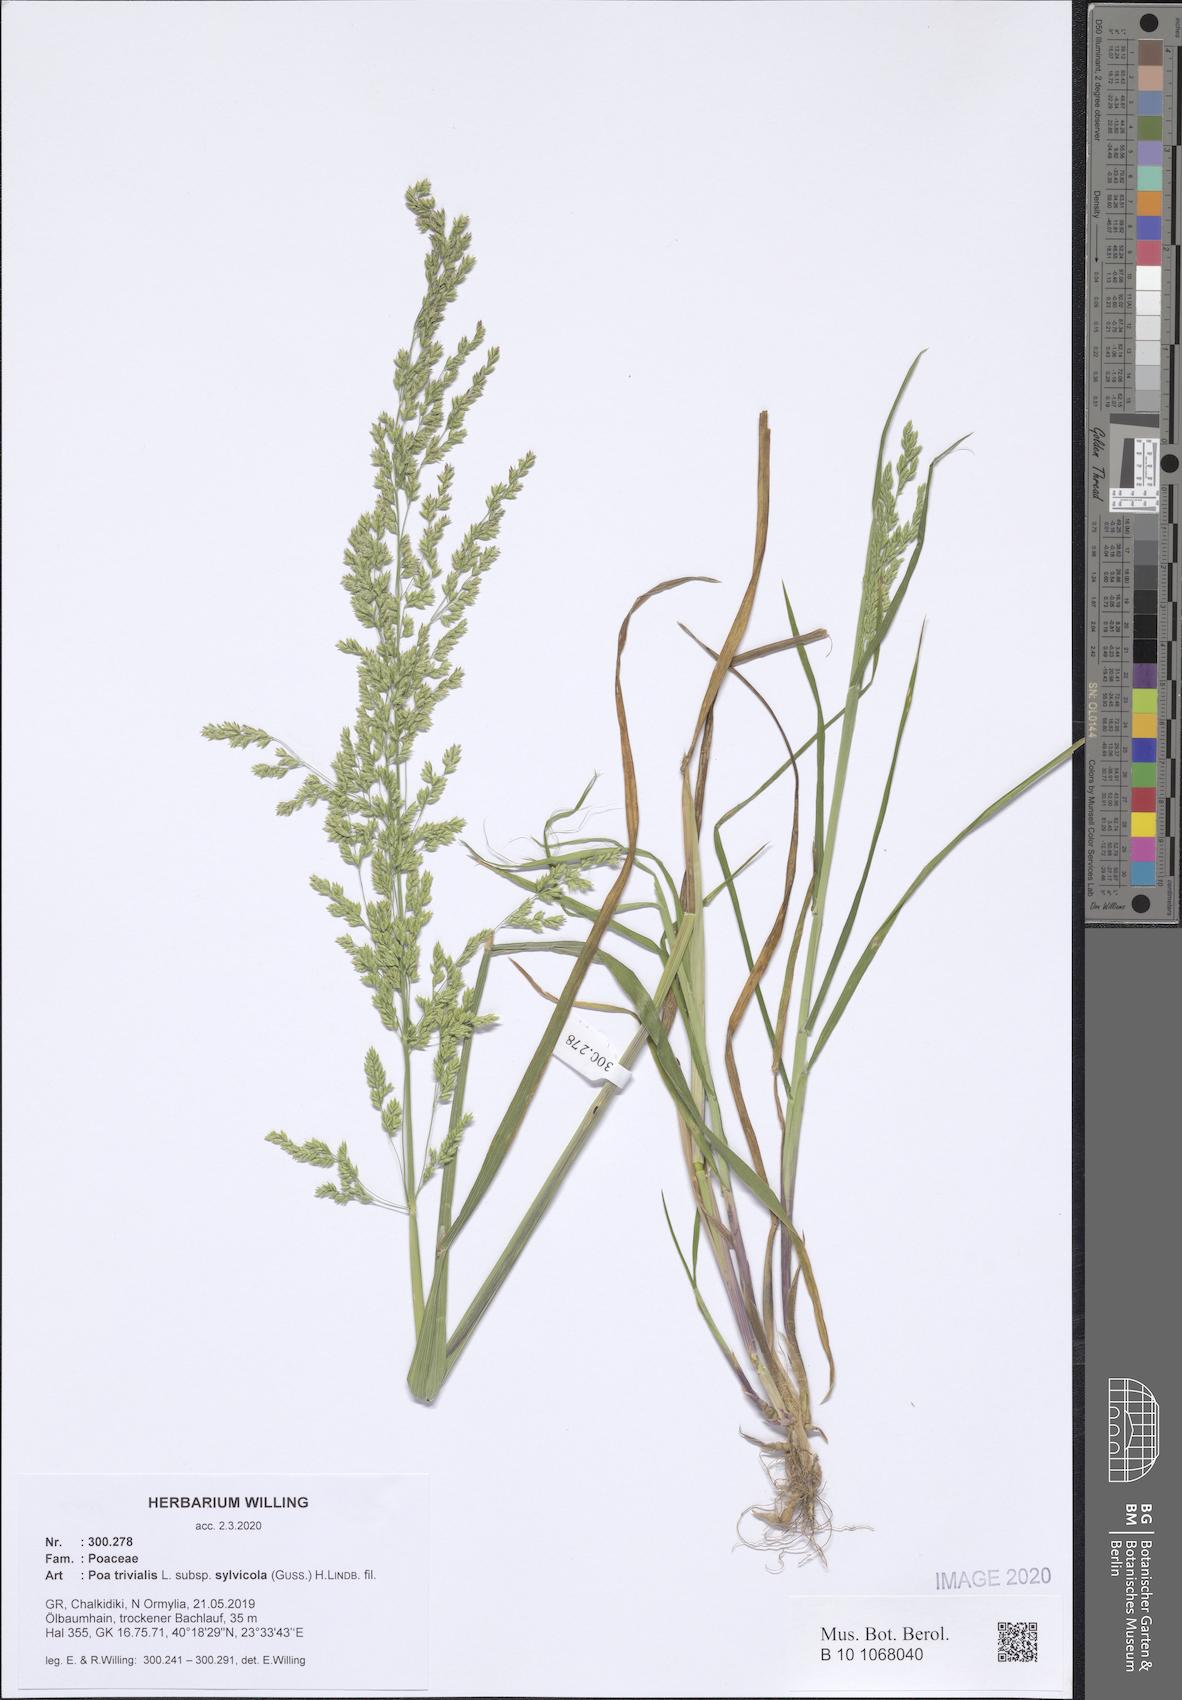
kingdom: Plantae
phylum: Tracheophyta
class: Liliopsida
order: Poales
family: Poaceae
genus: Poa
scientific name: Poa trivialis
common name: Rough bluegrass
